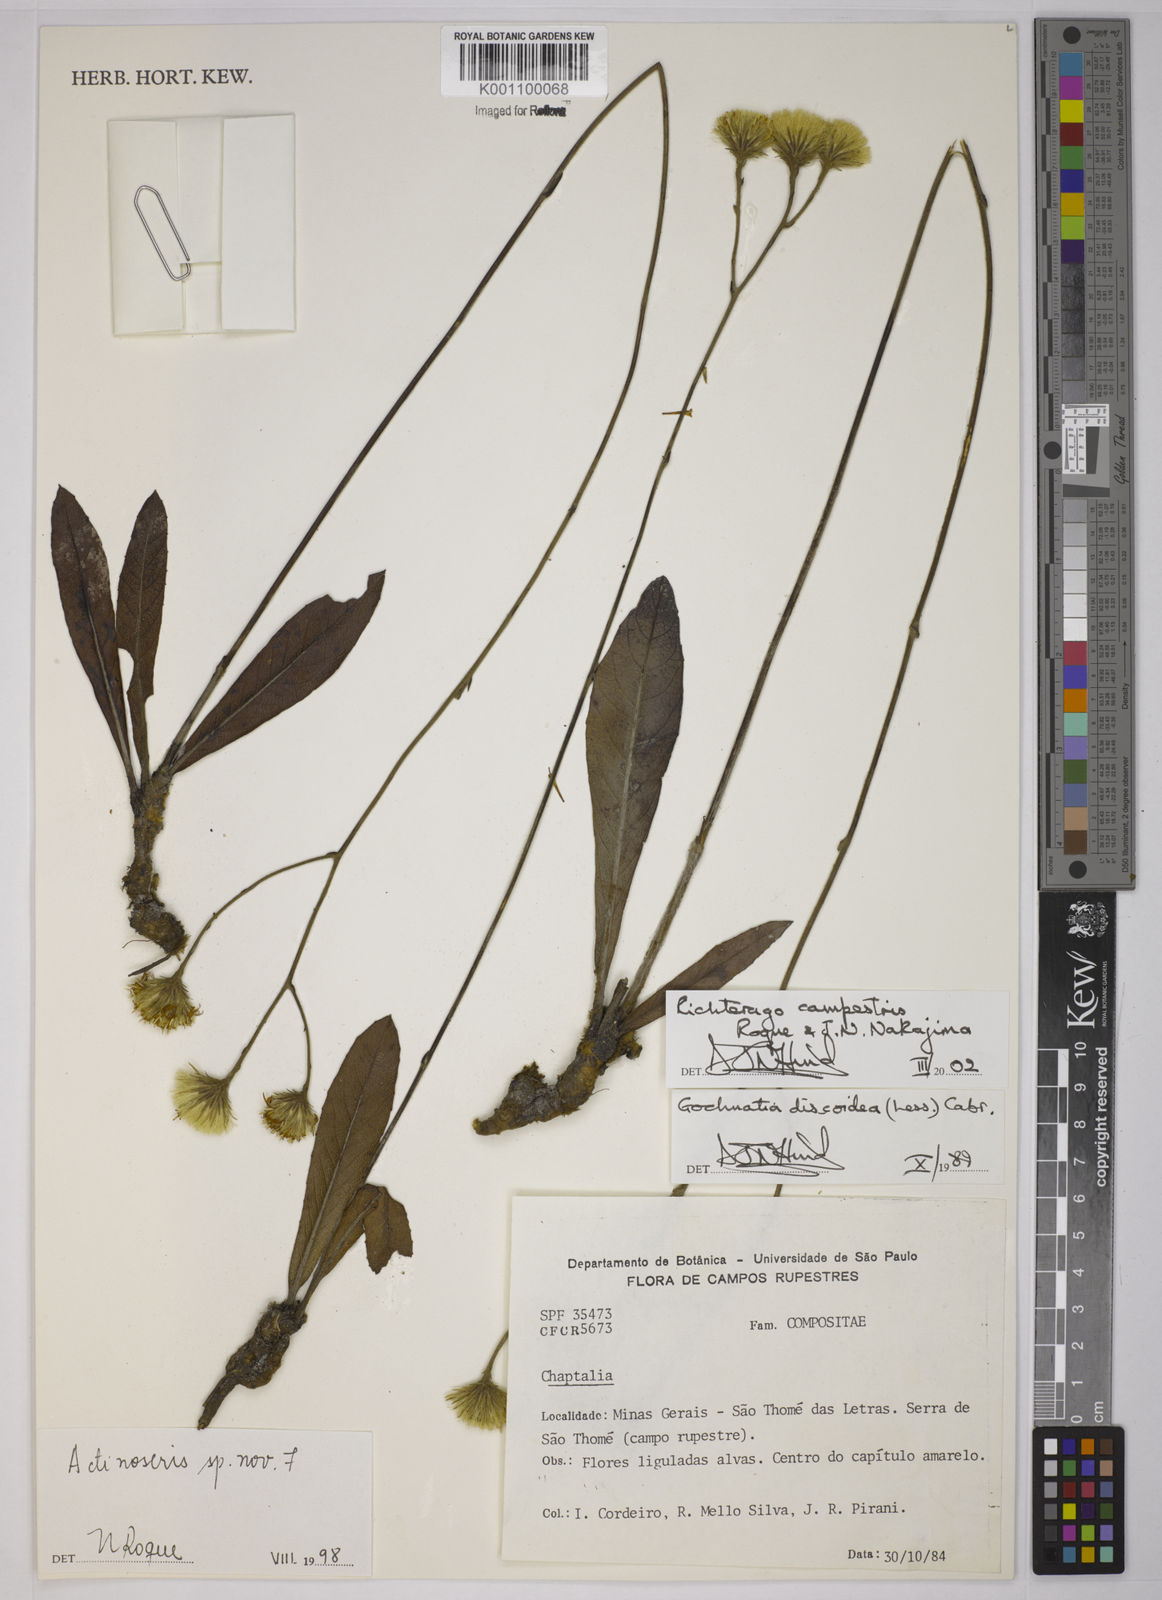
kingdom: Plantae
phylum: Tracheophyta
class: Magnoliopsida
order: Asterales
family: Asteraceae
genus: Richterago
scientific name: Richterago arenaria
